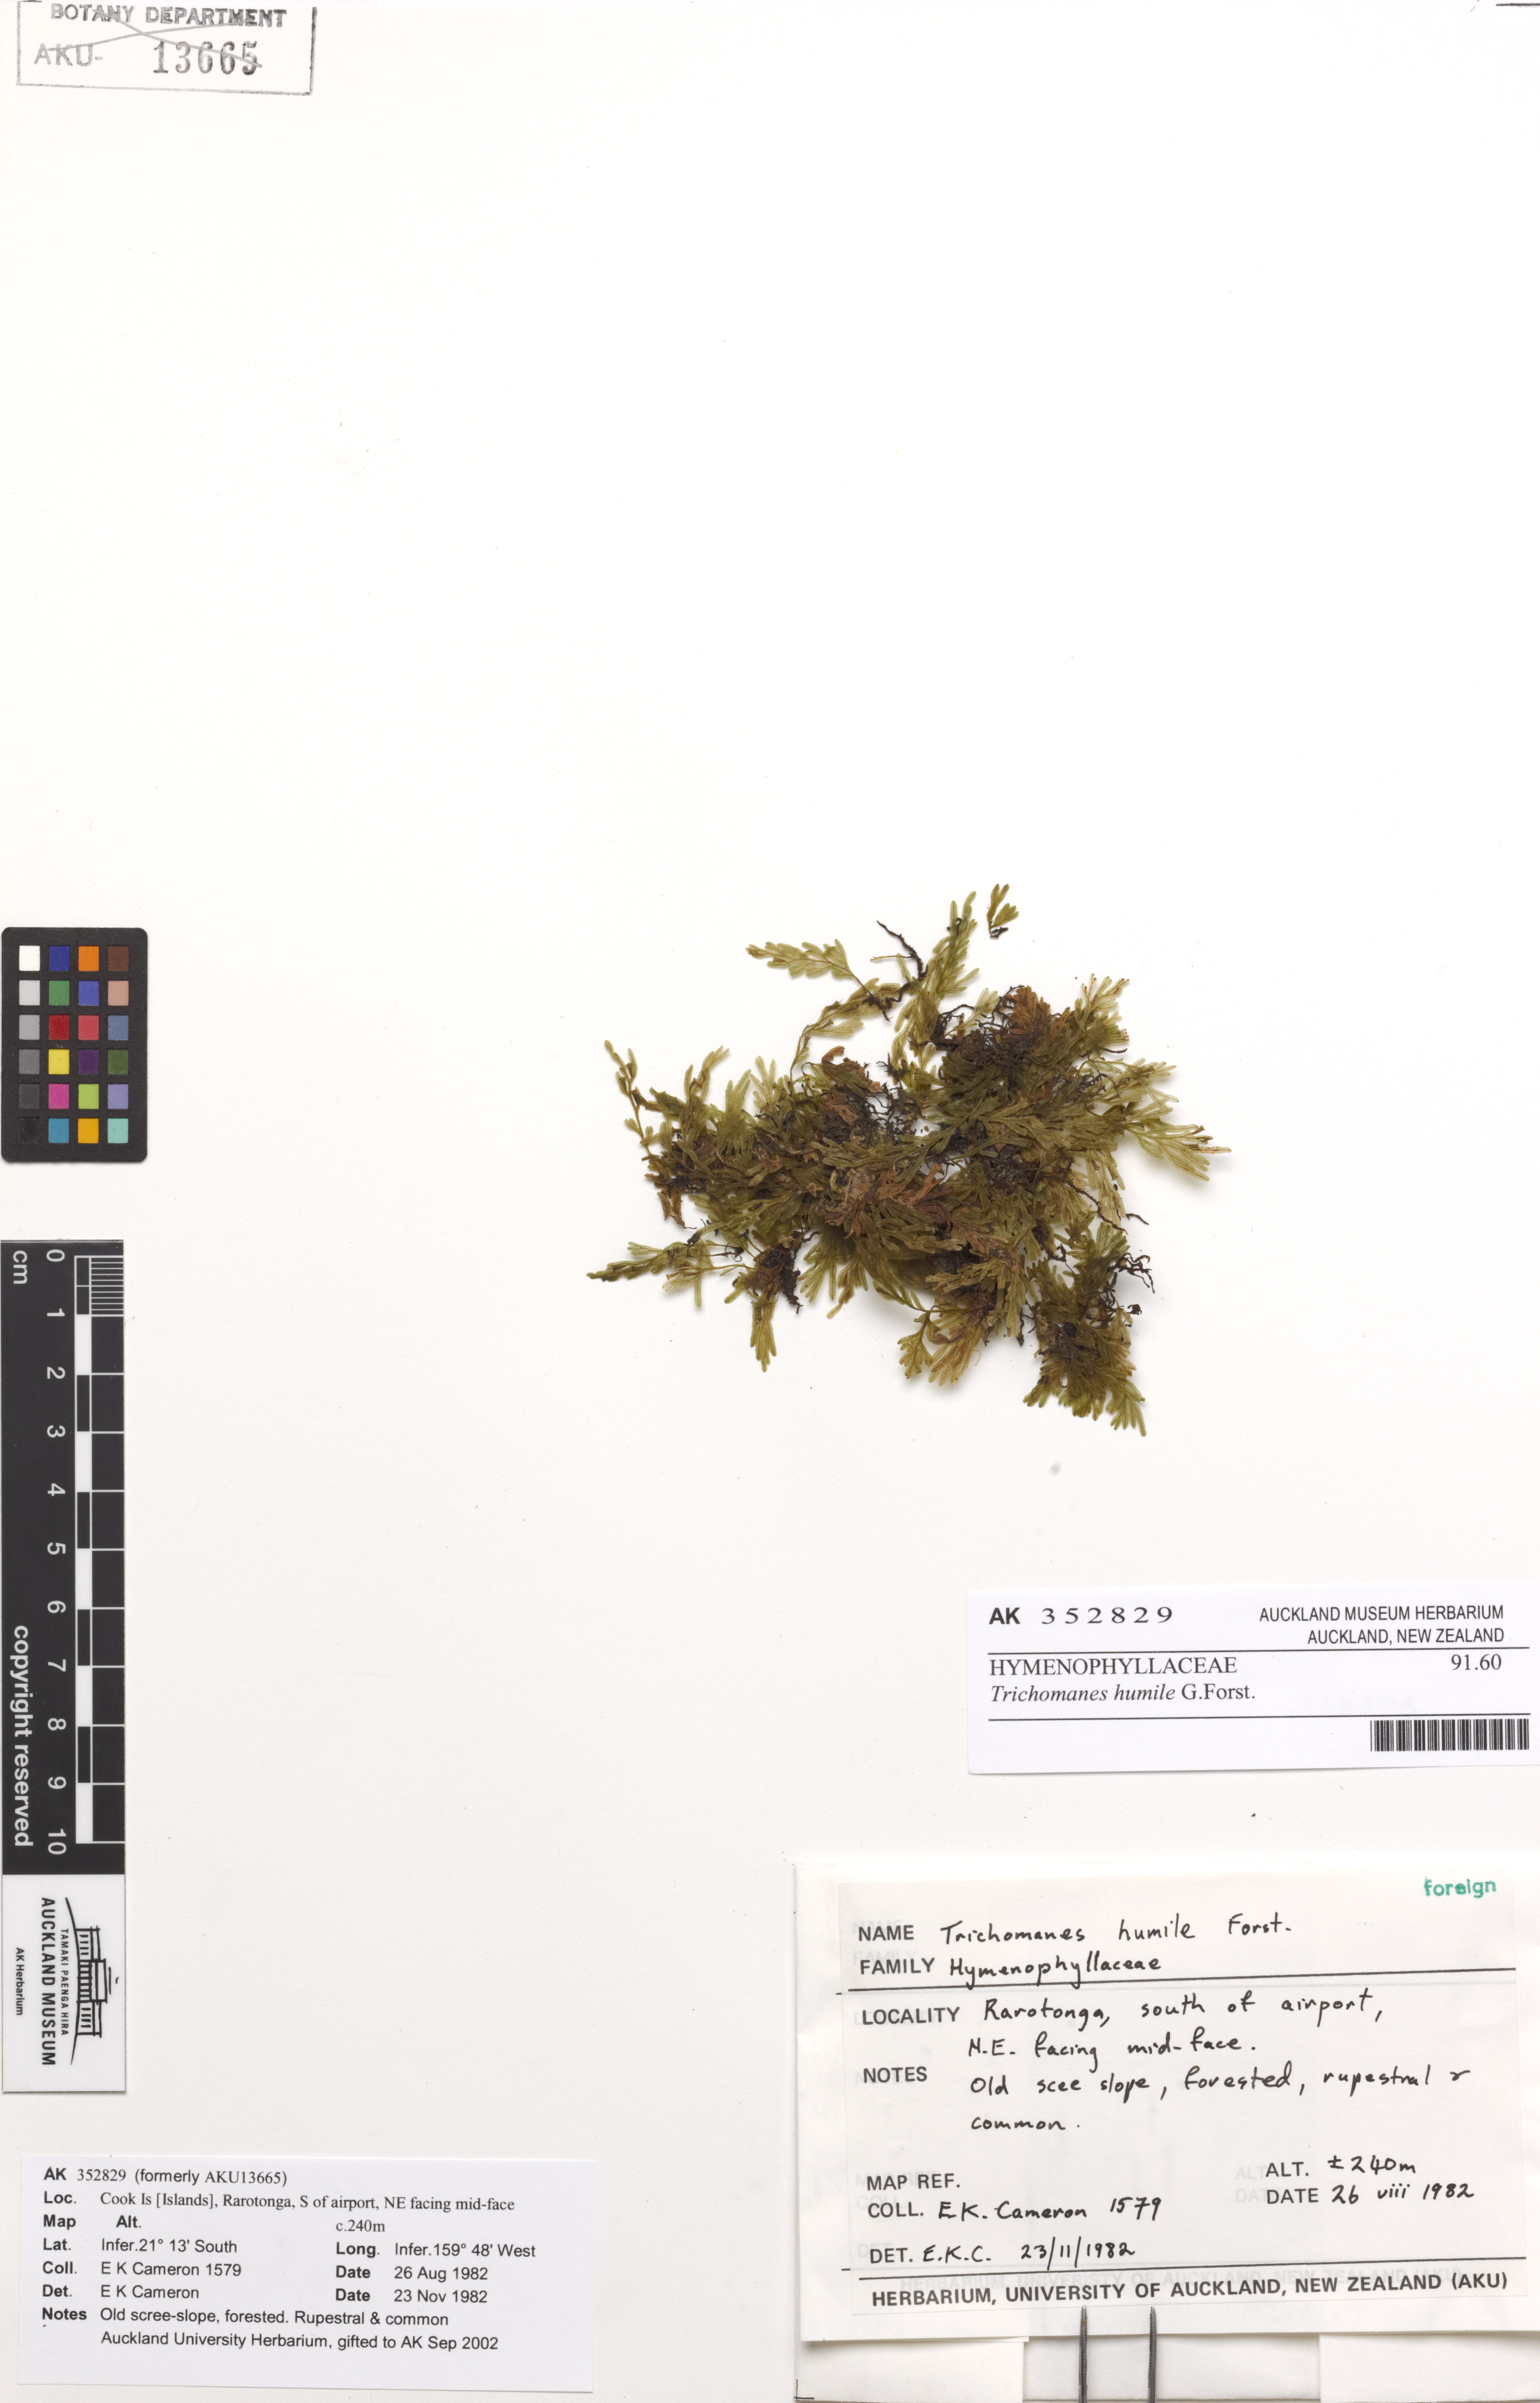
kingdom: Plantae
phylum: Tracheophyta
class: Polypodiopsida
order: Hymenophyllales
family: Hymenophyllaceae
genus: Crepidomanes
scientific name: Crepidomanes humile
